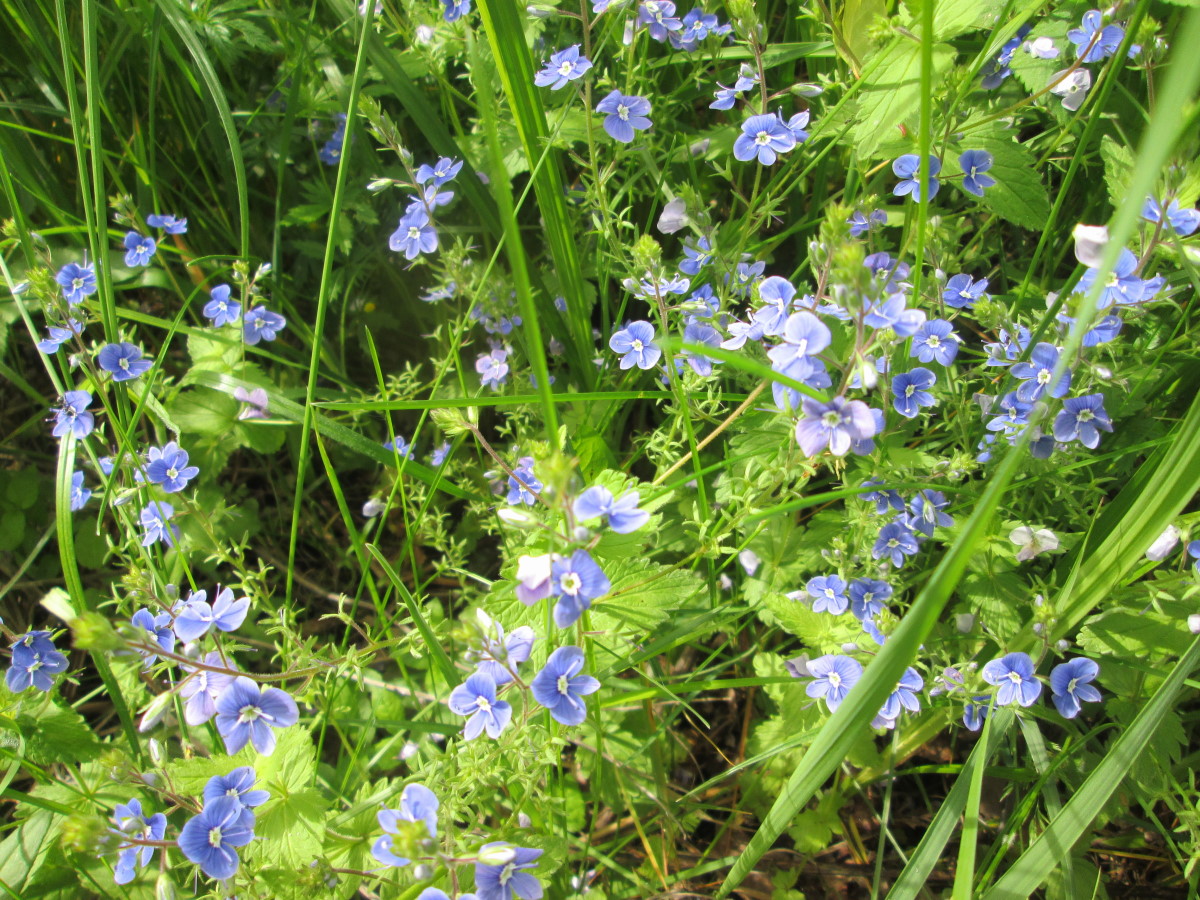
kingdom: Plantae
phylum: Tracheophyta
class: Magnoliopsida
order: Lamiales
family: Plantaginaceae
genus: Veronica
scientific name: Veronica chamaedrys
